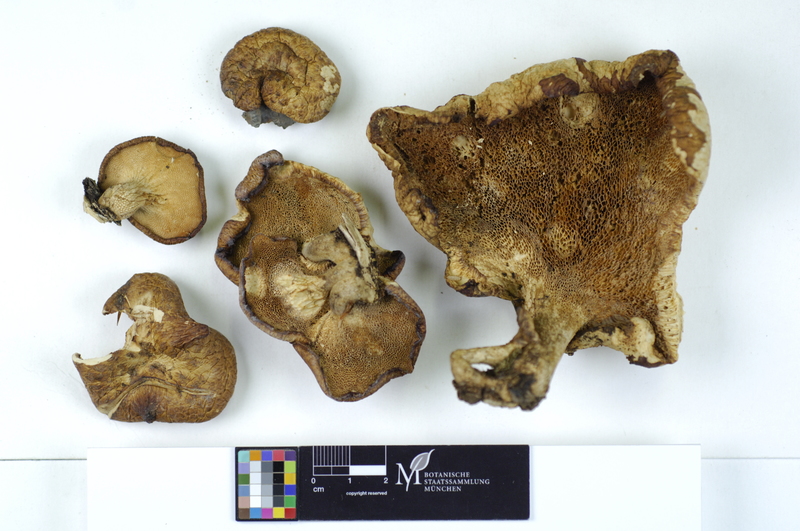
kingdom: Fungi
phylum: Basidiomycota
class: Agaricomycetes
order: Polyporales
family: Polyporaceae
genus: Polyporus
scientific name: Polyporus tuberaster
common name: Tuberous polypore
